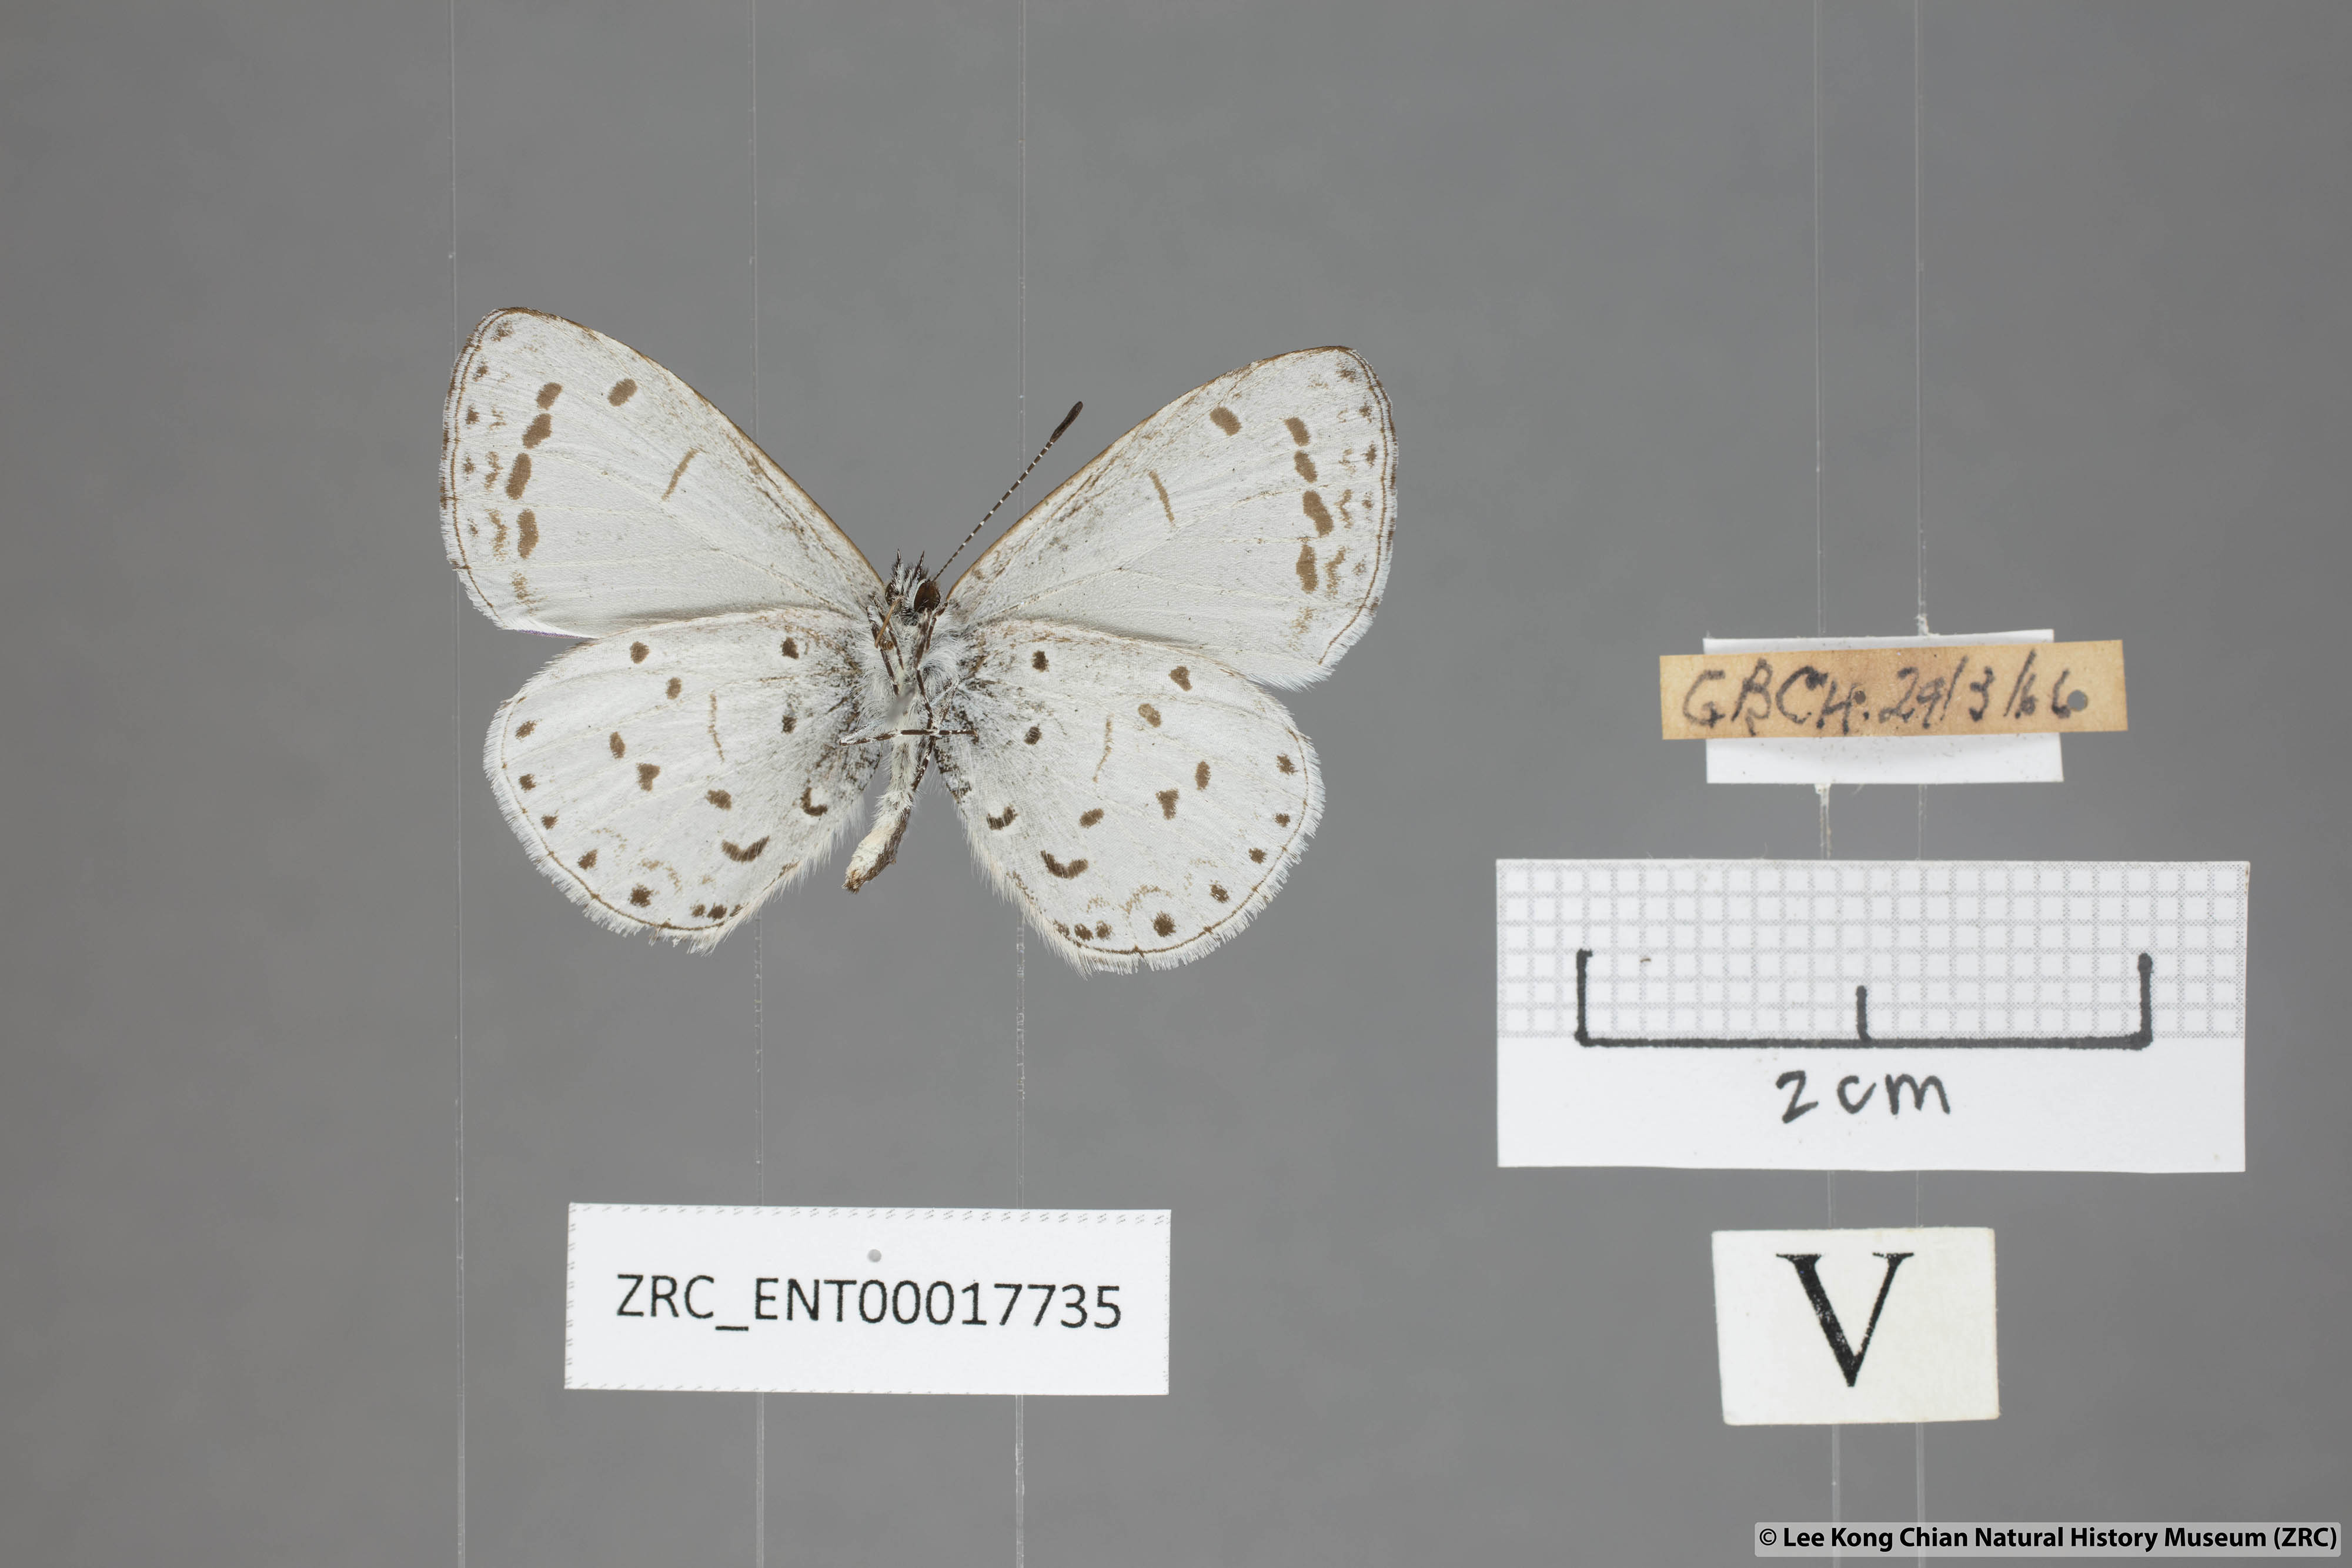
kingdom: Animalia
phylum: Arthropoda
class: Insecta
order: Lepidoptera
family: Lycaenidae
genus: Udara
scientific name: Udara
